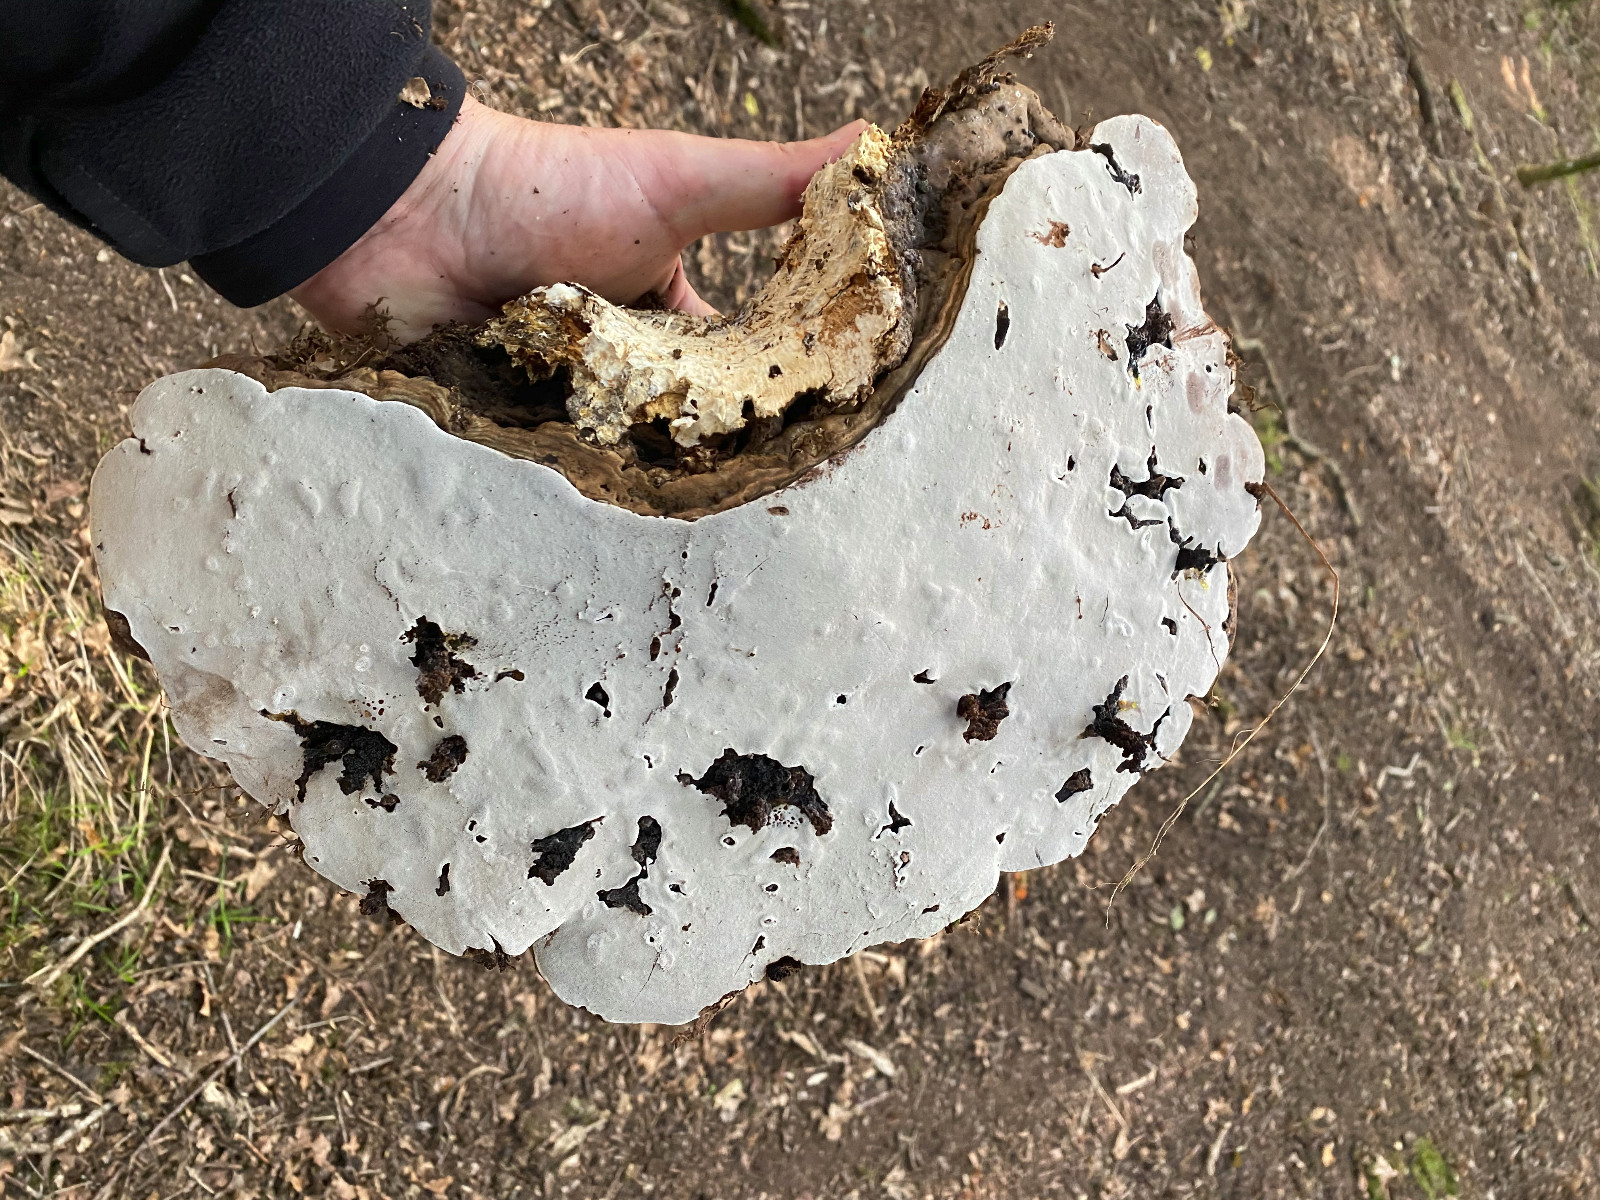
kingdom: Fungi
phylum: Basidiomycota
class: Agaricomycetes
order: Polyporales
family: Polyporaceae
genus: Ganoderma
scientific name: Ganoderma applanatum
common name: flad lakporesvamp
